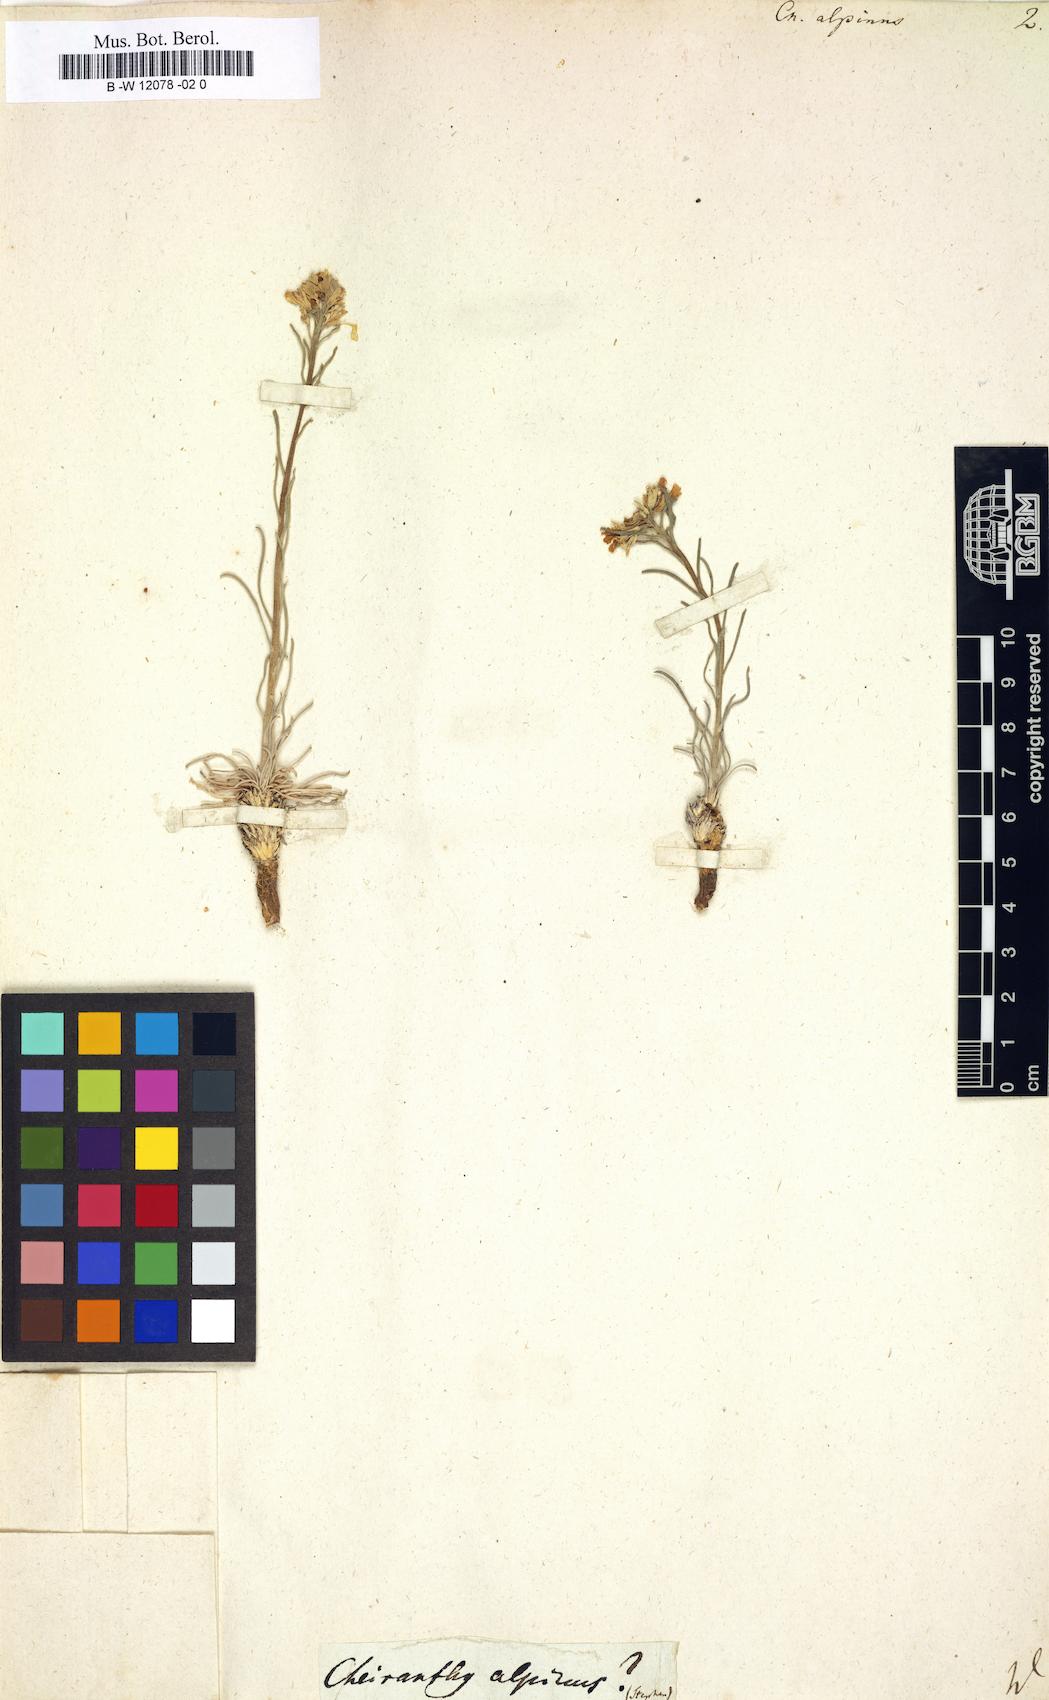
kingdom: Plantae
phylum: Tracheophyta
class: Magnoliopsida
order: Brassicales
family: Brassicaceae
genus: Erysimum
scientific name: Erysimum
